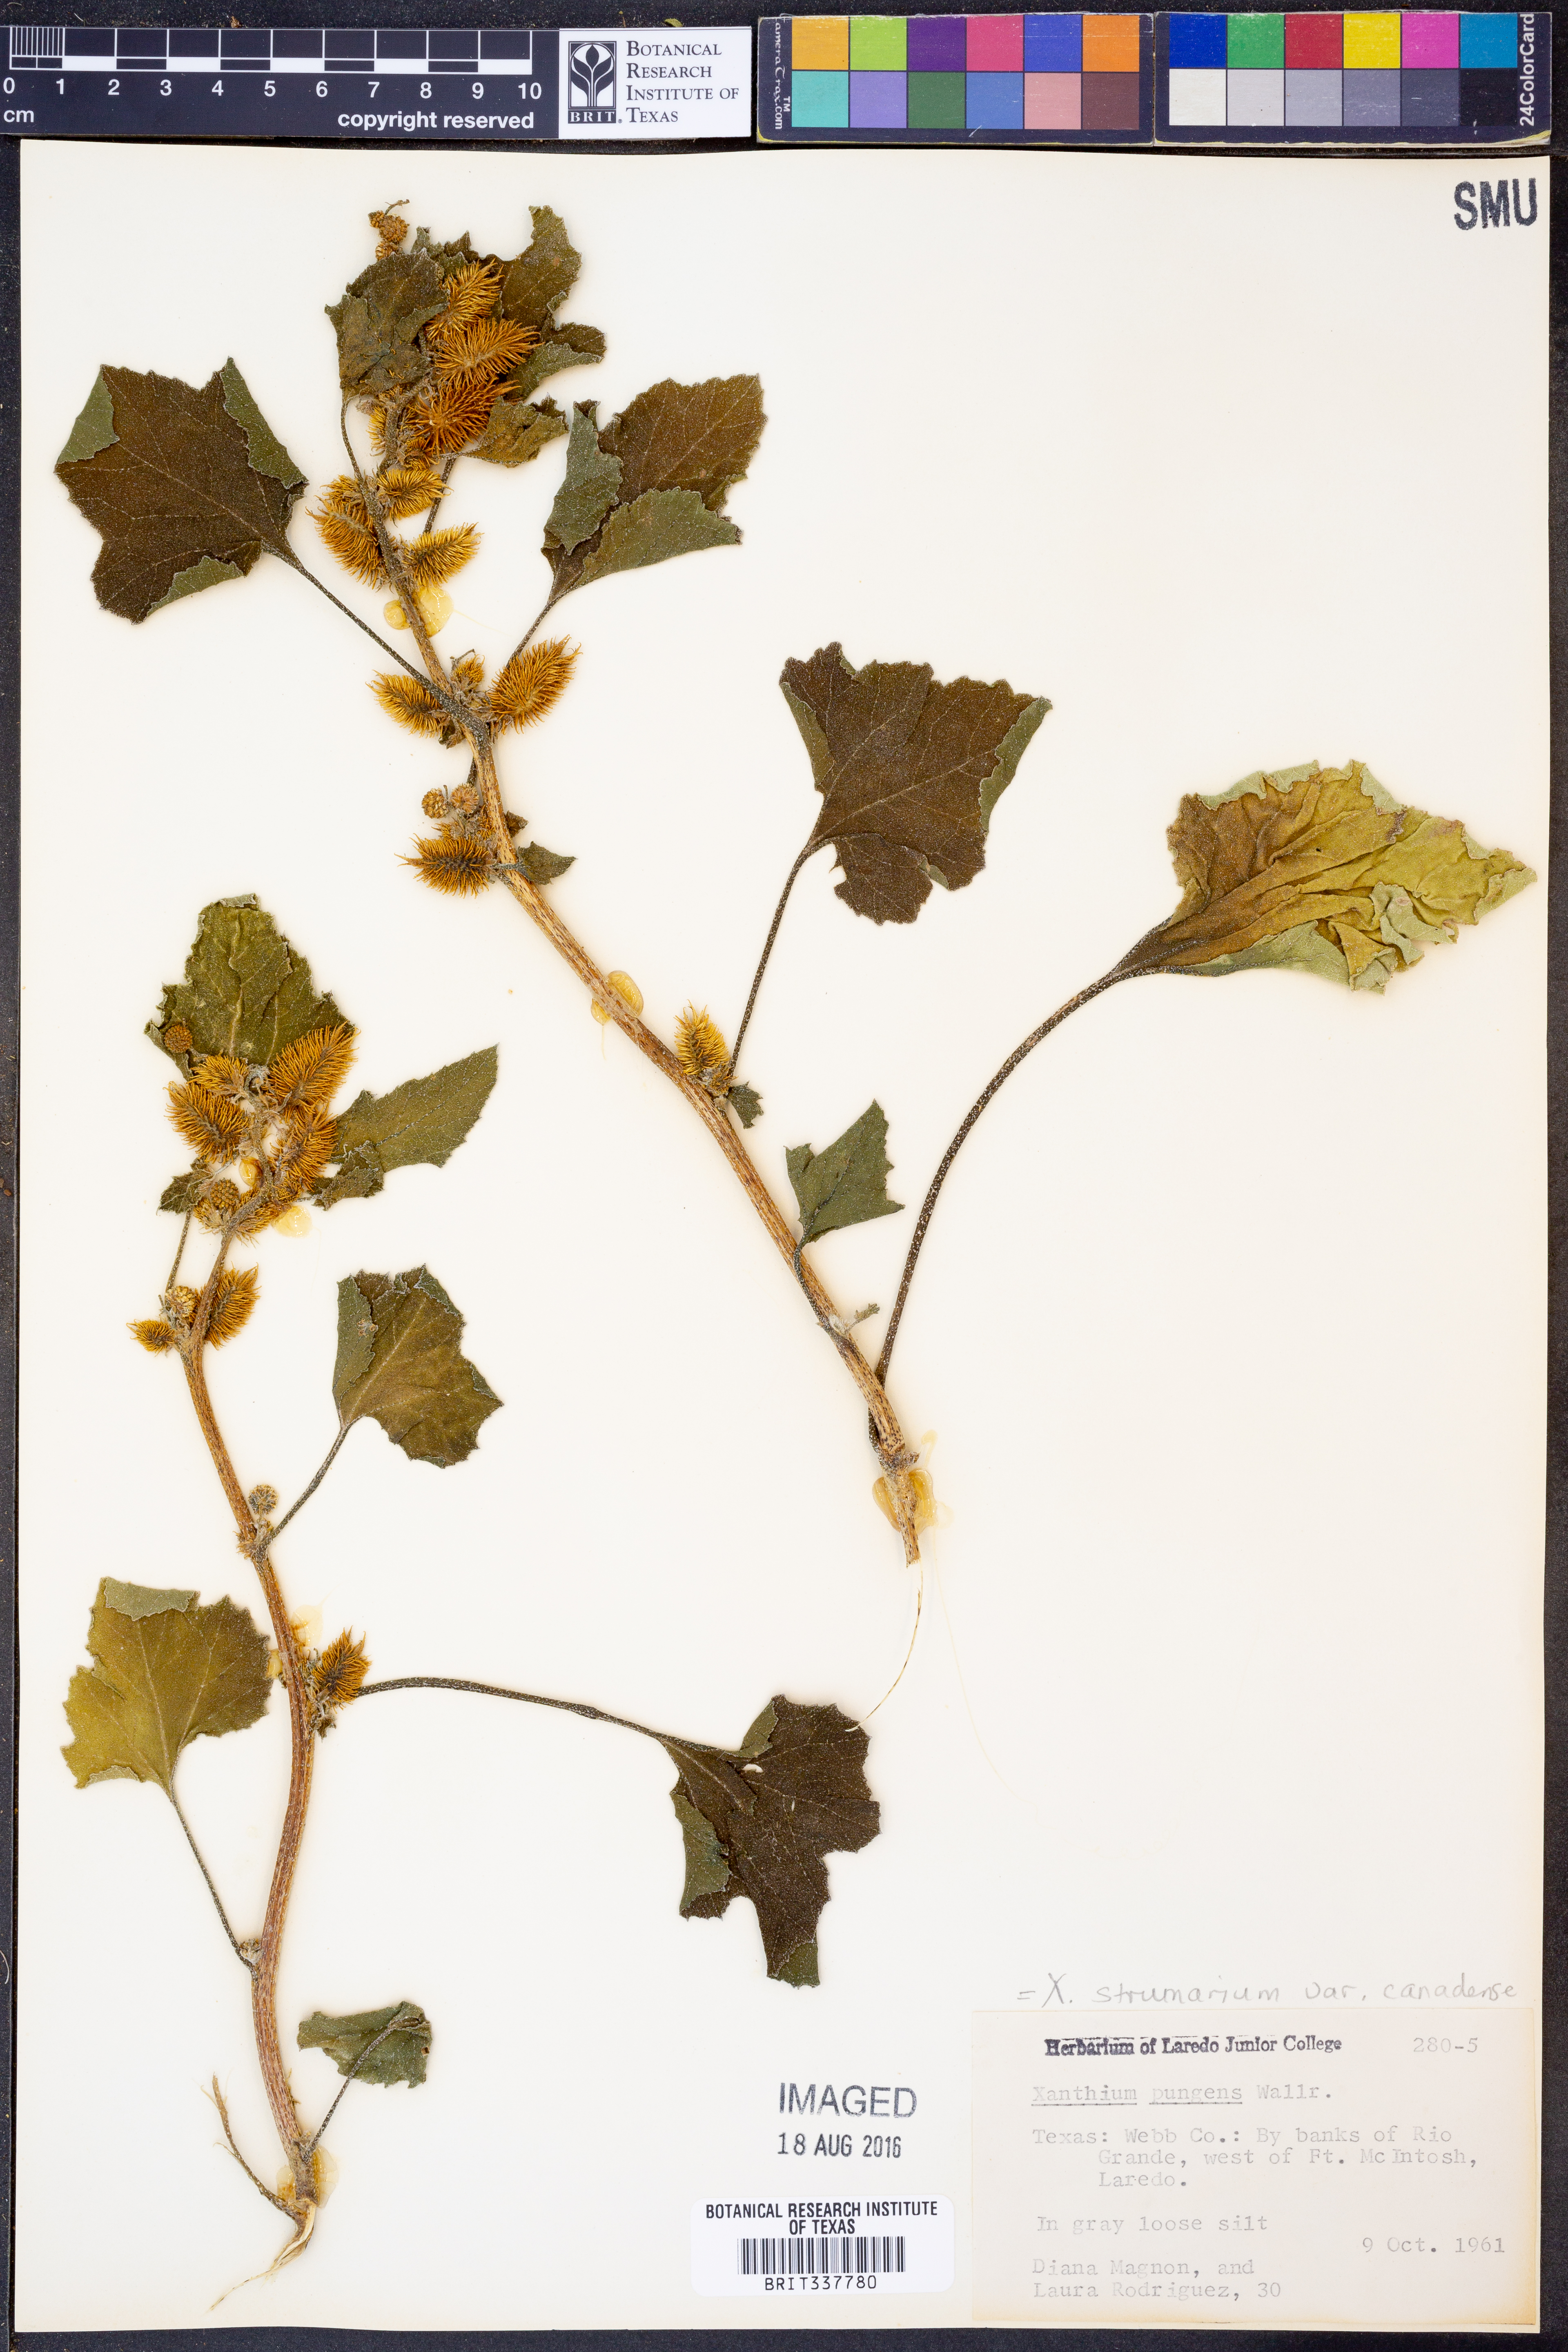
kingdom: Plantae
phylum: Tracheophyta
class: Magnoliopsida
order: Asterales
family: Asteraceae
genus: Xanthium
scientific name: Xanthium orientale
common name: Californian burr
